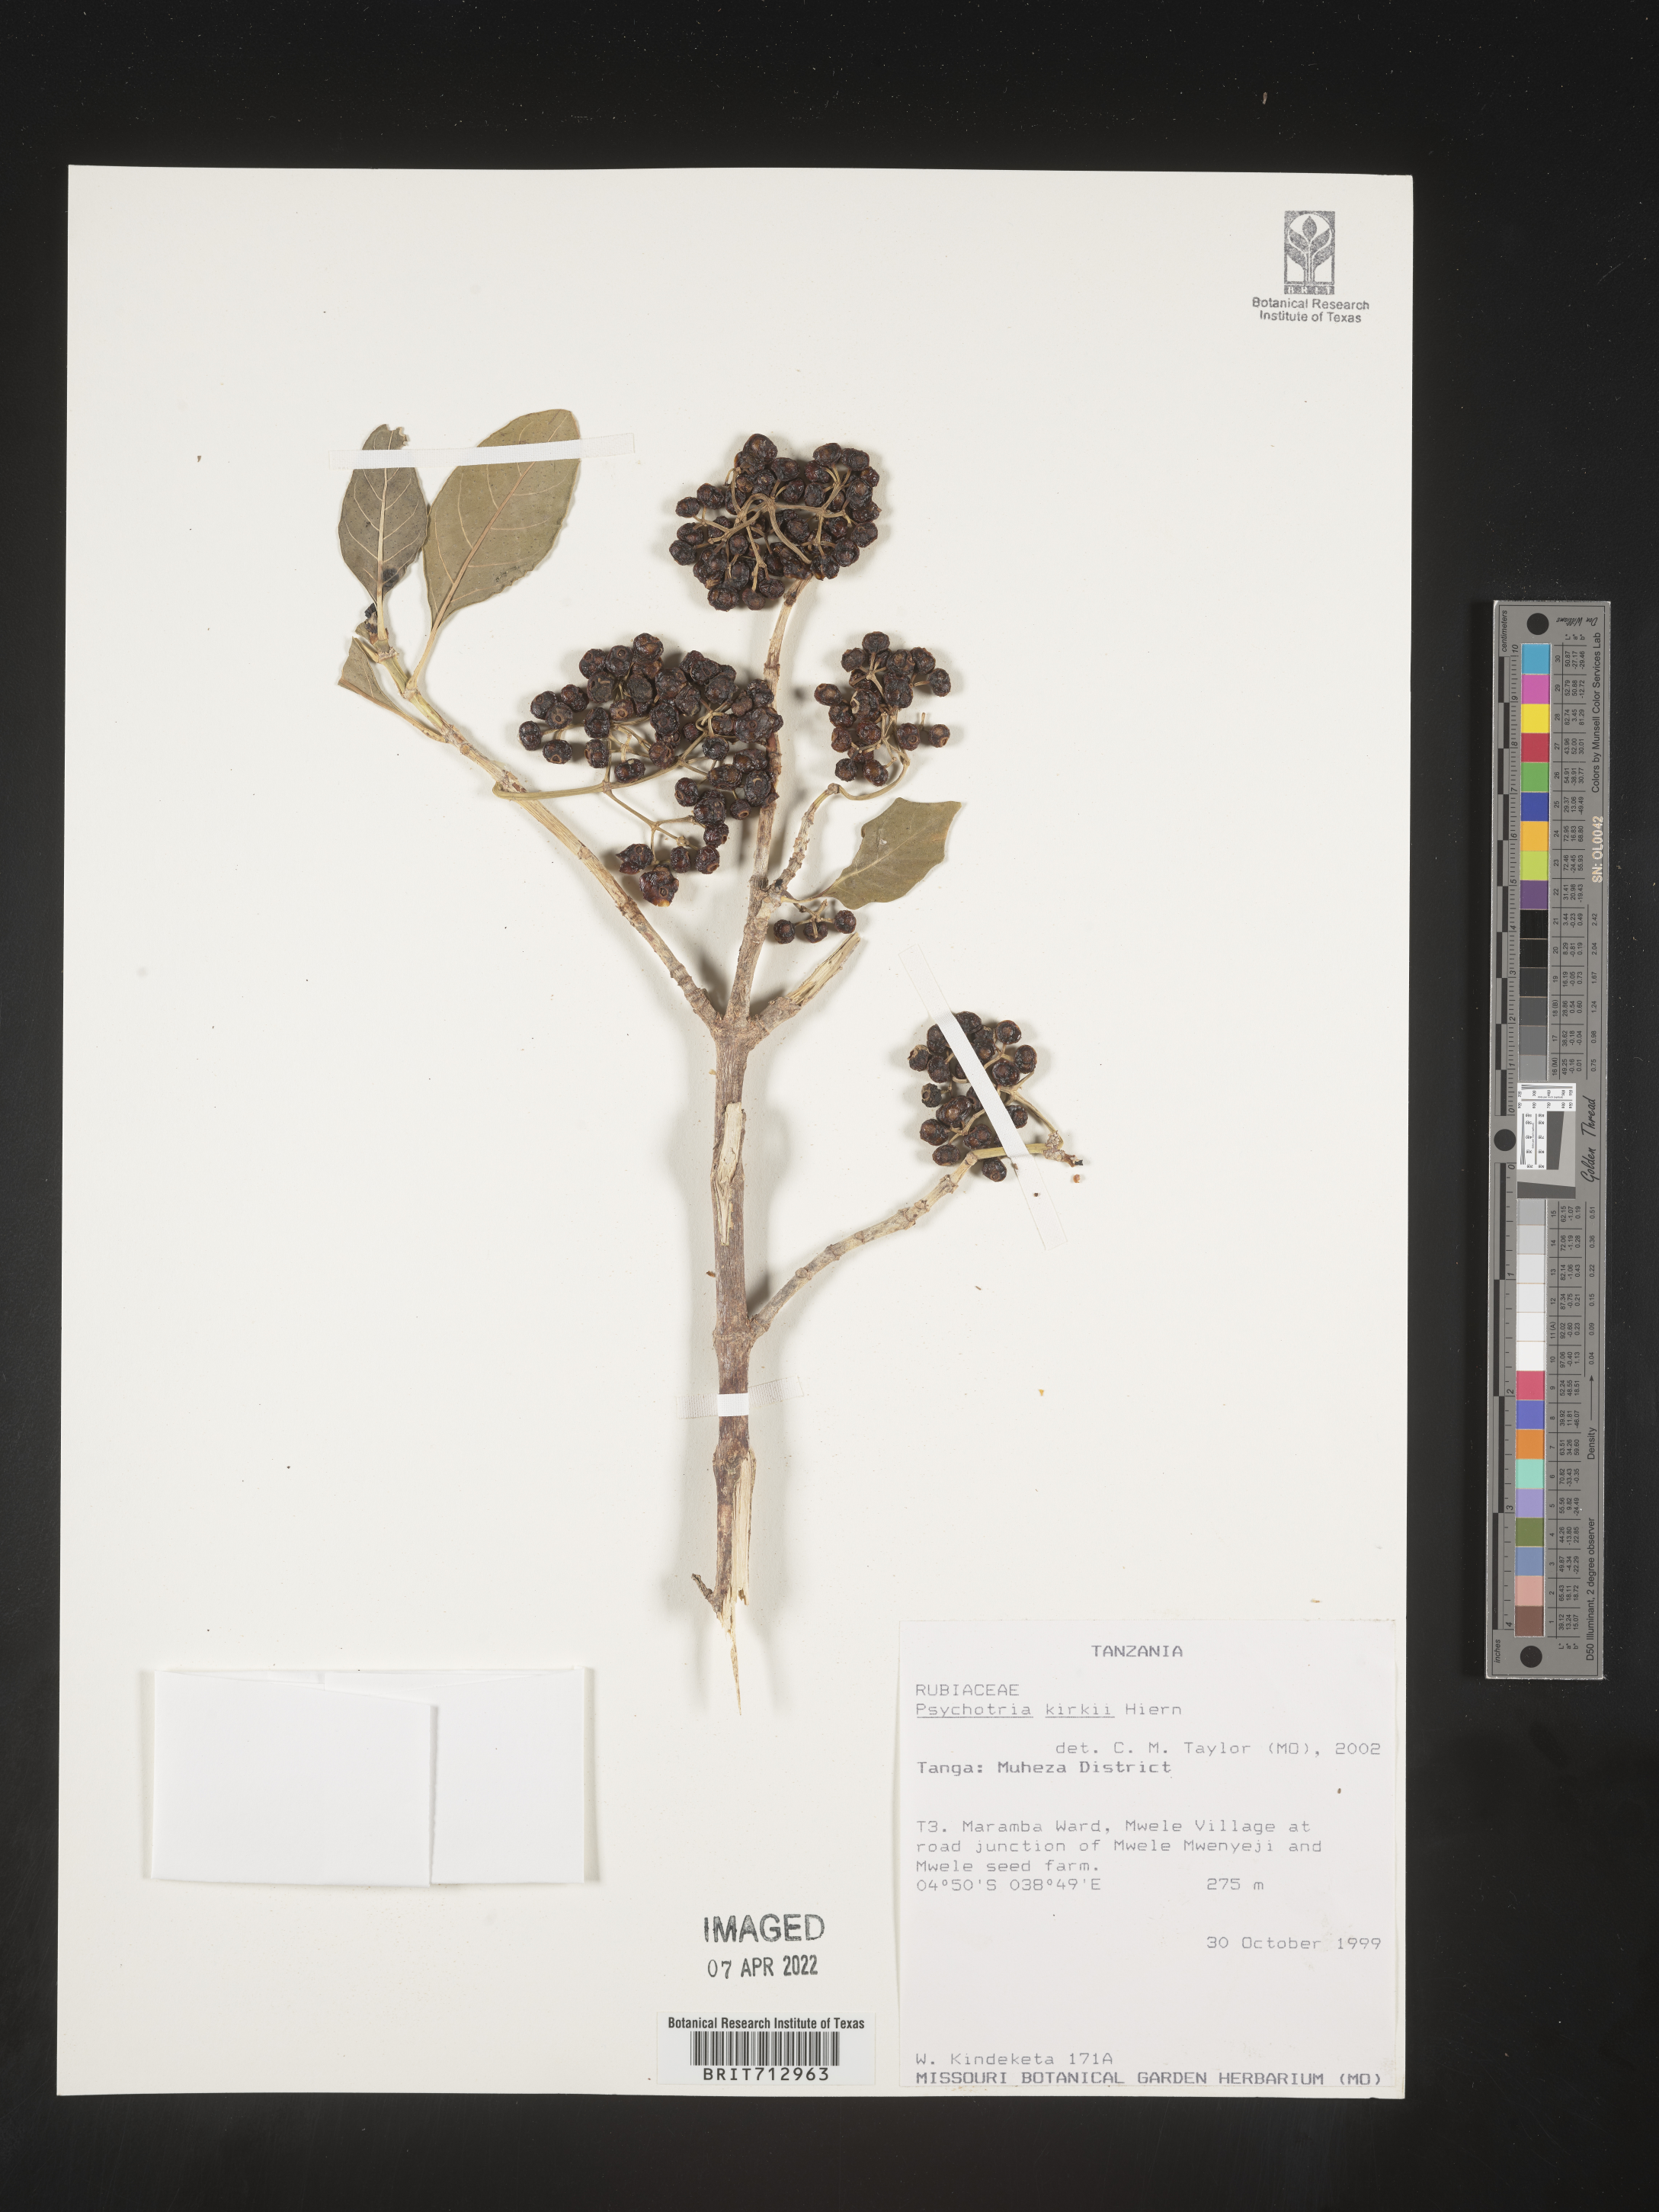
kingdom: Plantae
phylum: Tracheophyta
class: Magnoliopsida
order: Gentianales
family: Rubiaceae
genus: Psychotria
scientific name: Psychotria punctata
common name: Dotted wild coffee
